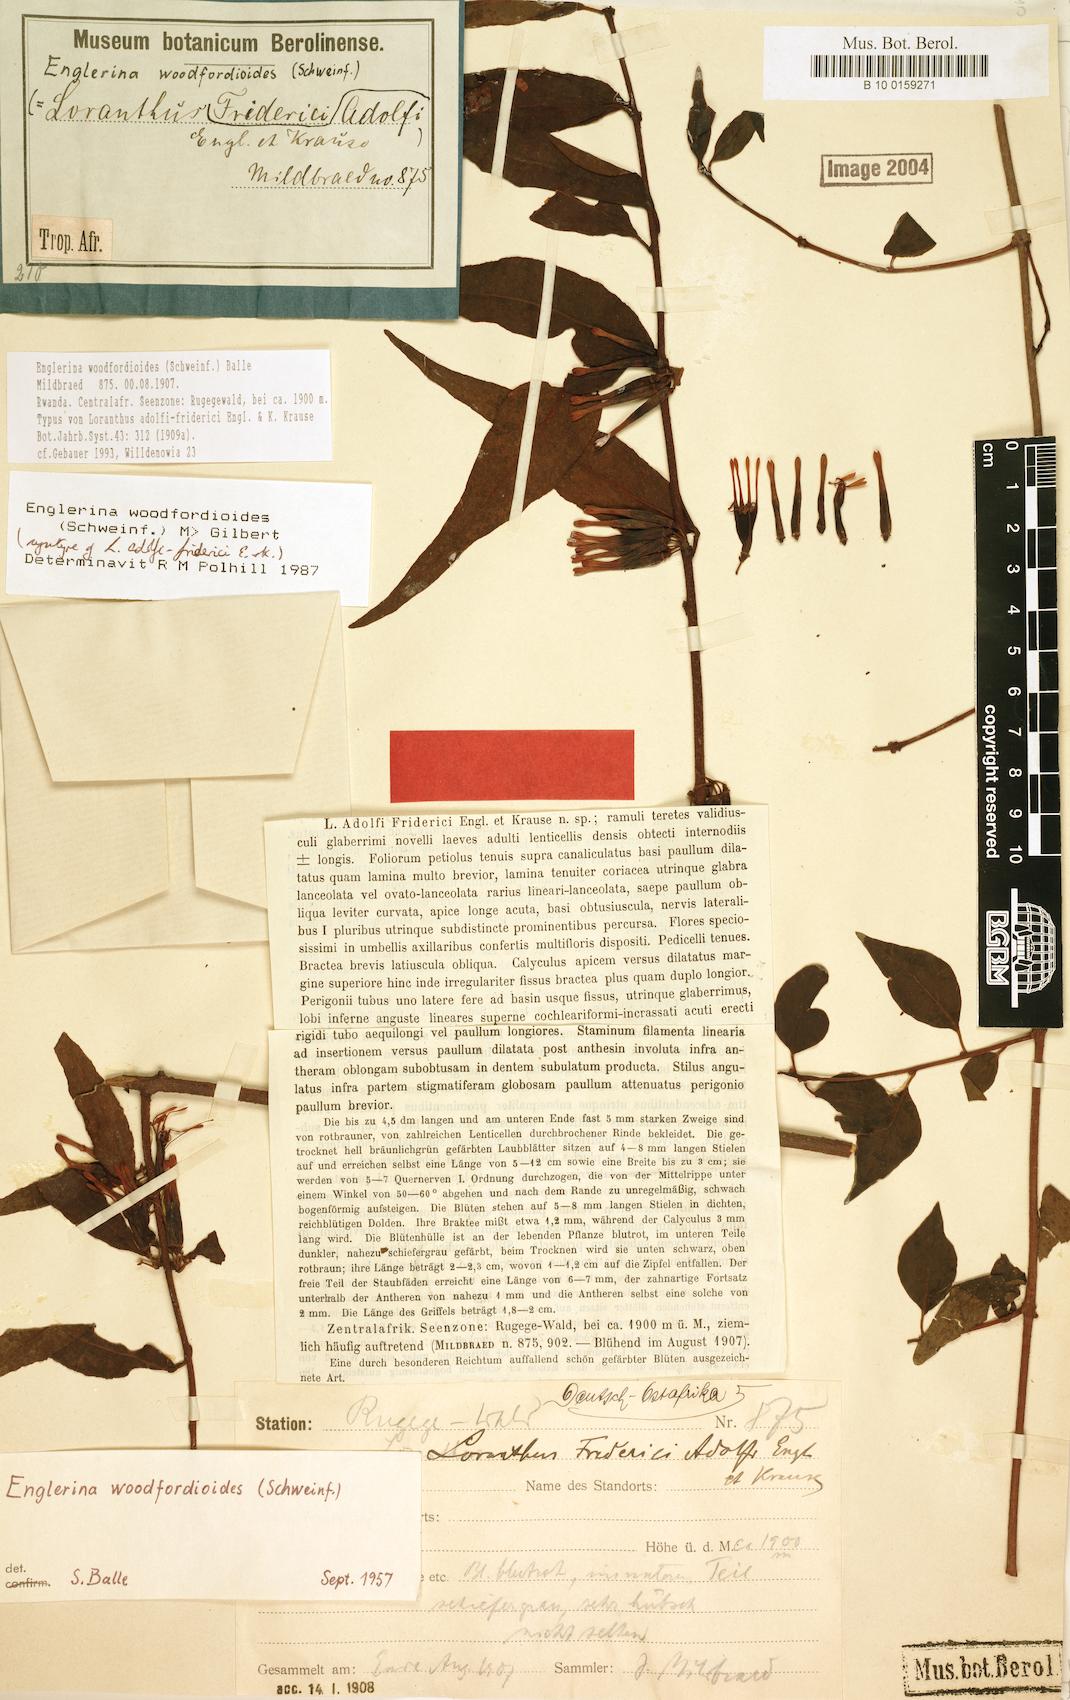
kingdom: Plantae
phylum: Tracheophyta
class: Magnoliopsida
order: Santalales
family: Loranthaceae
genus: Englerina
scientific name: Englerina woodfordioides
